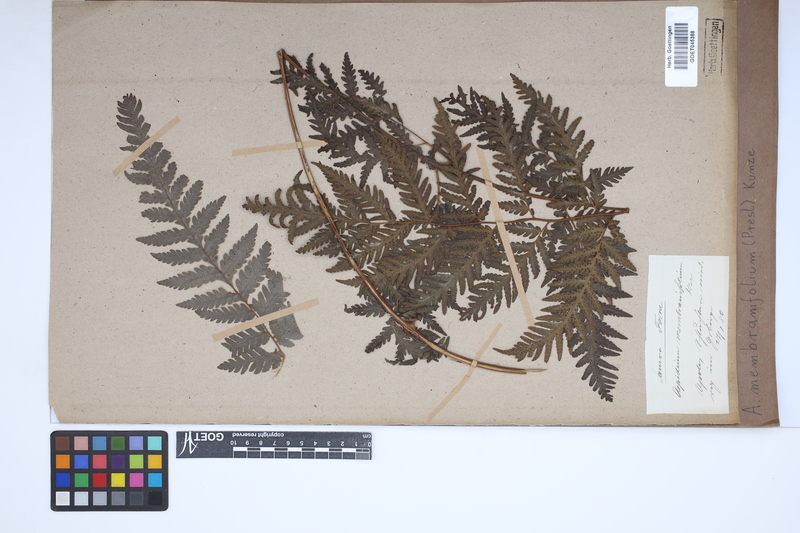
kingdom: Plantae
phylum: Tracheophyta
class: Polypodiopsida
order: Polypodiales
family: Tectariaceae
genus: Tectaria
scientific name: Tectaria dissecta
